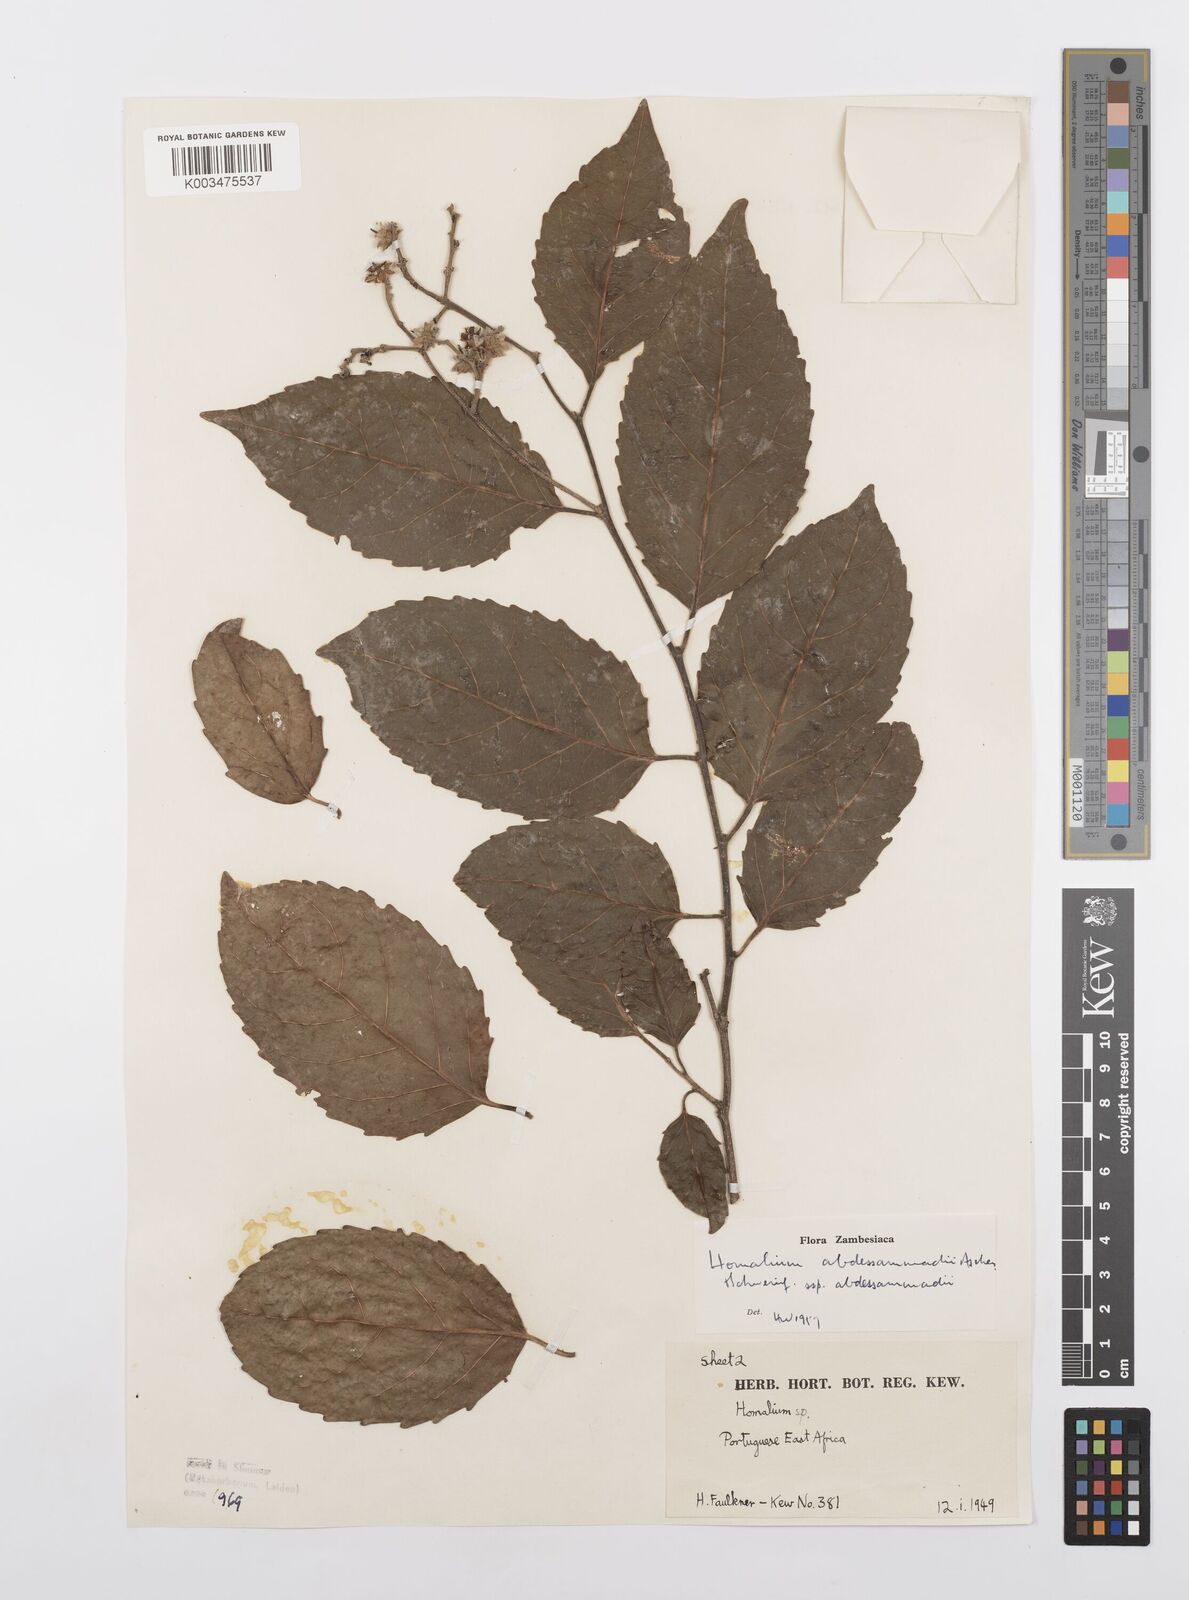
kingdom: Plantae
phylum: Tracheophyta
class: Magnoliopsida
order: Malpighiales
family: Salicaceae
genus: Homalium
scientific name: Homalium abdessammadii
